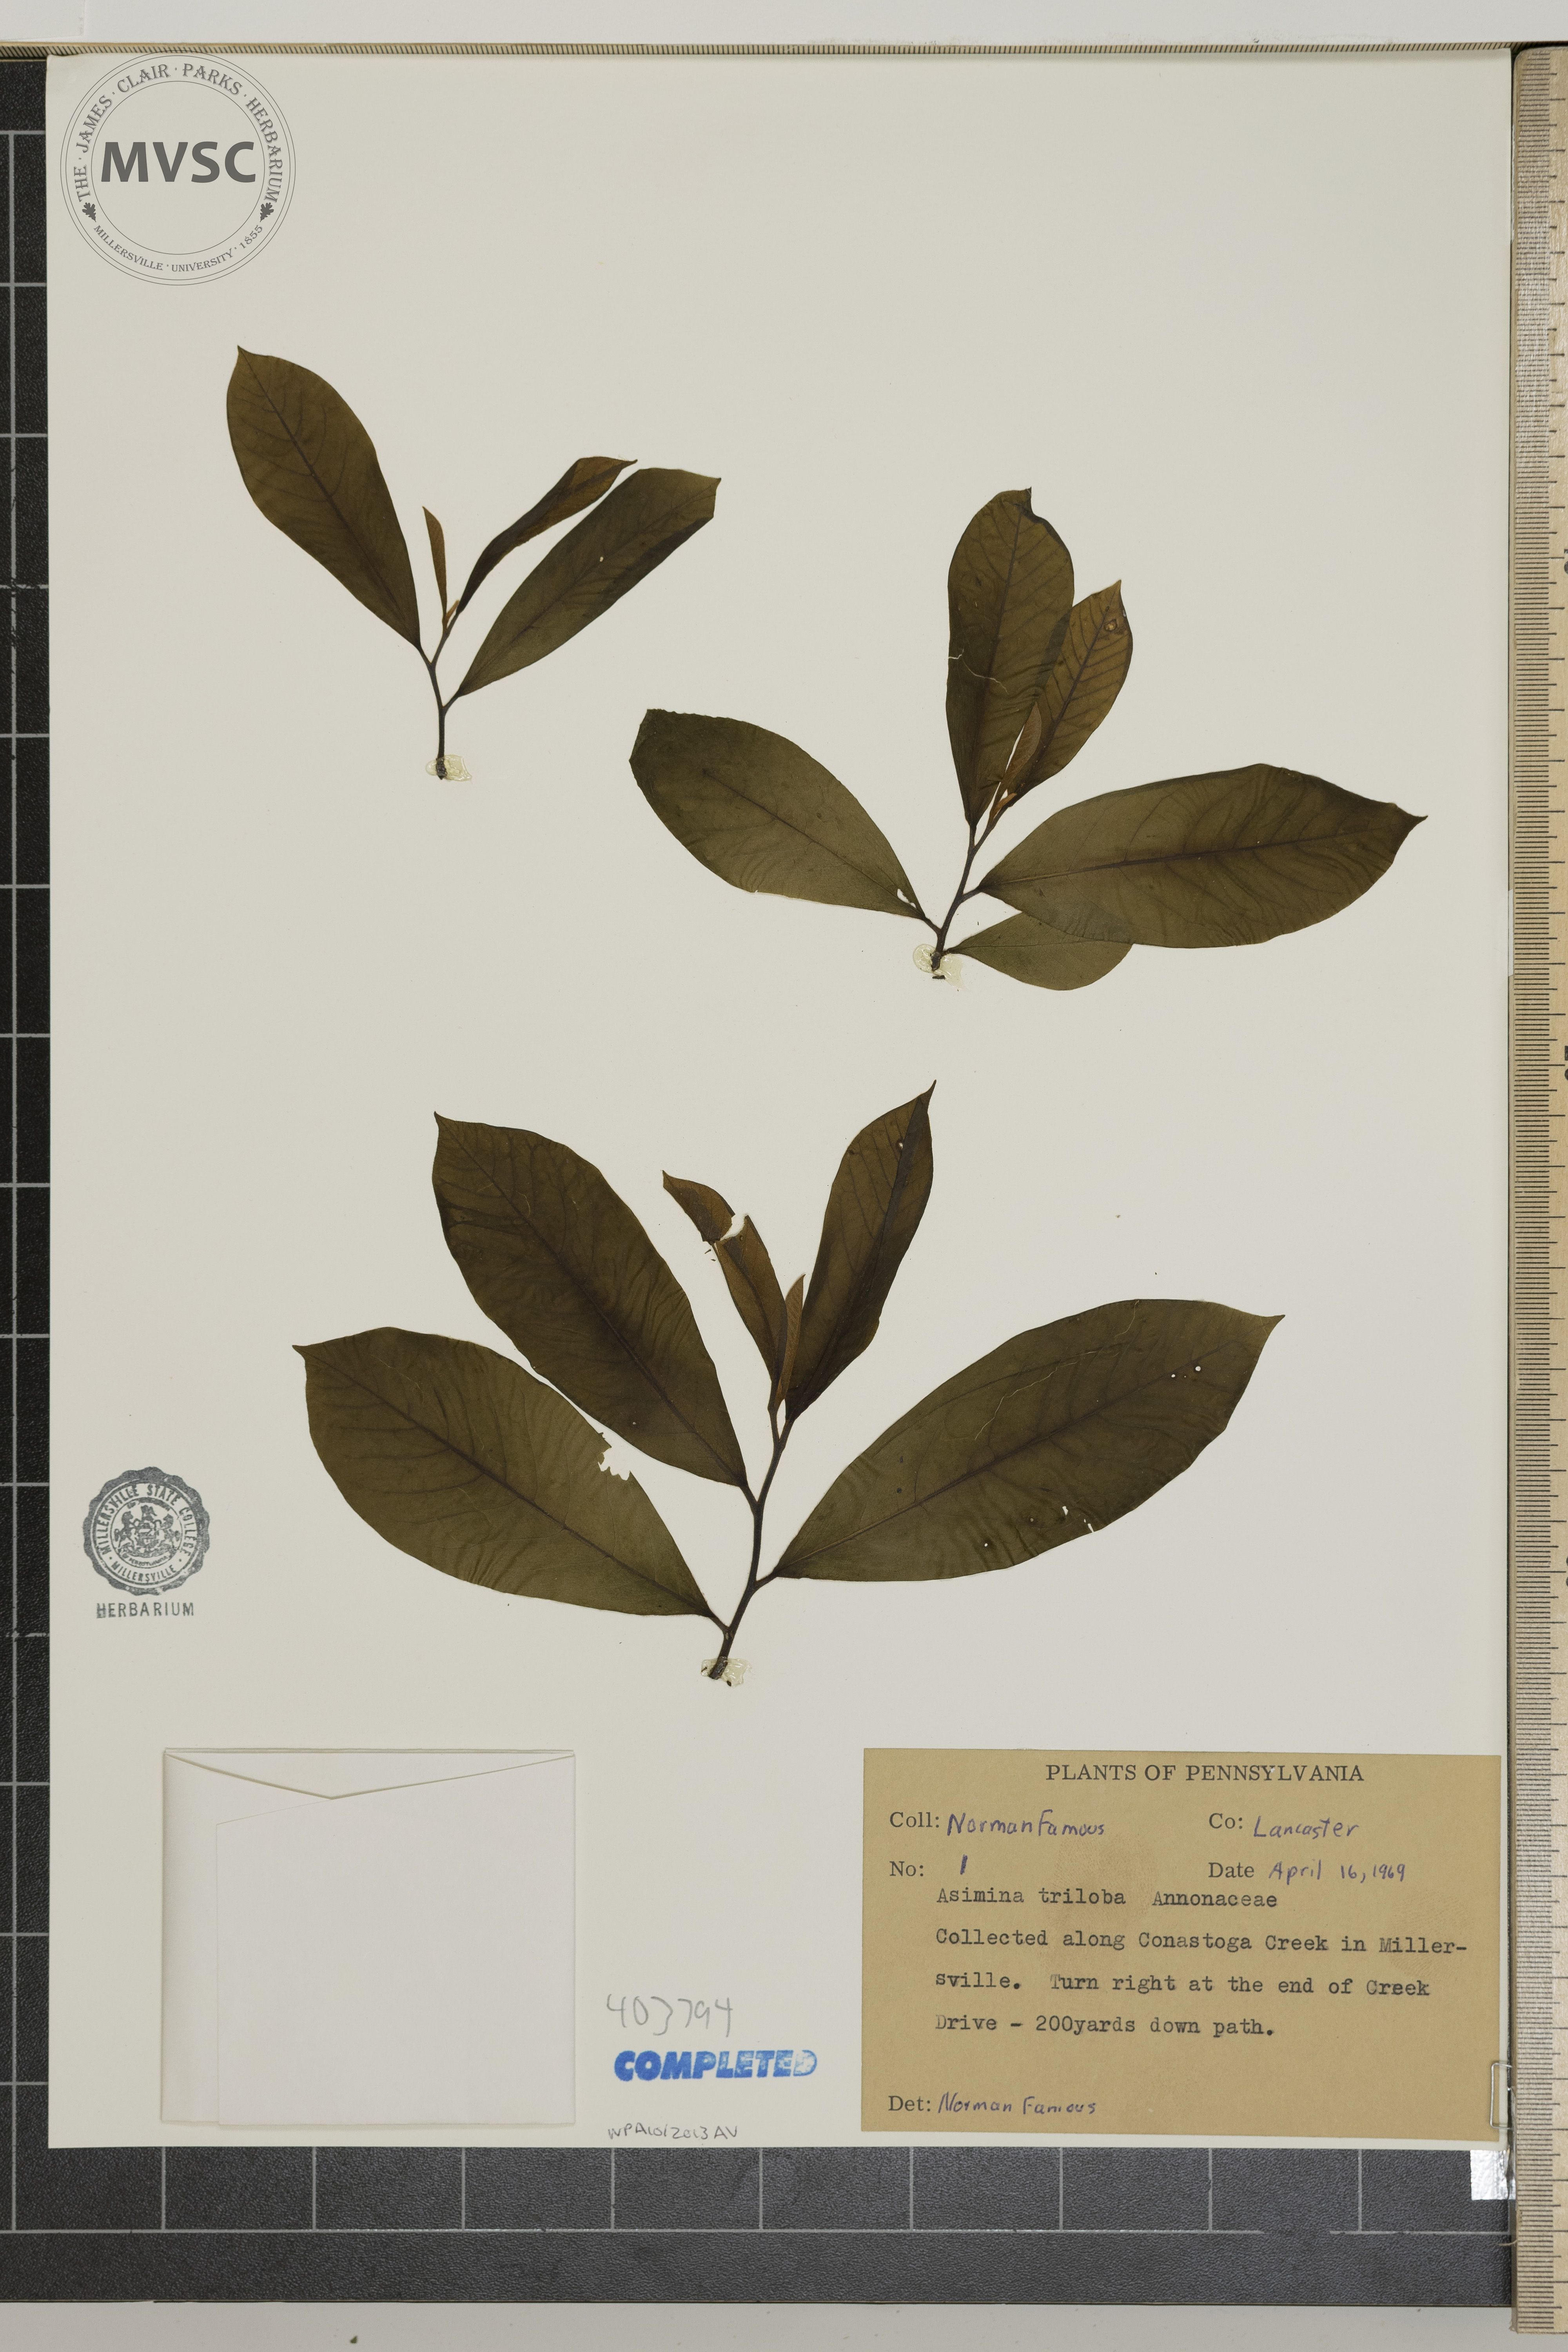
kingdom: Plantae
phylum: Tracheophyta
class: Magnoliopsida
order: Magnoliales
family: Annonaceae
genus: Asimina
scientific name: Asimina triloba
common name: Dog-banana
